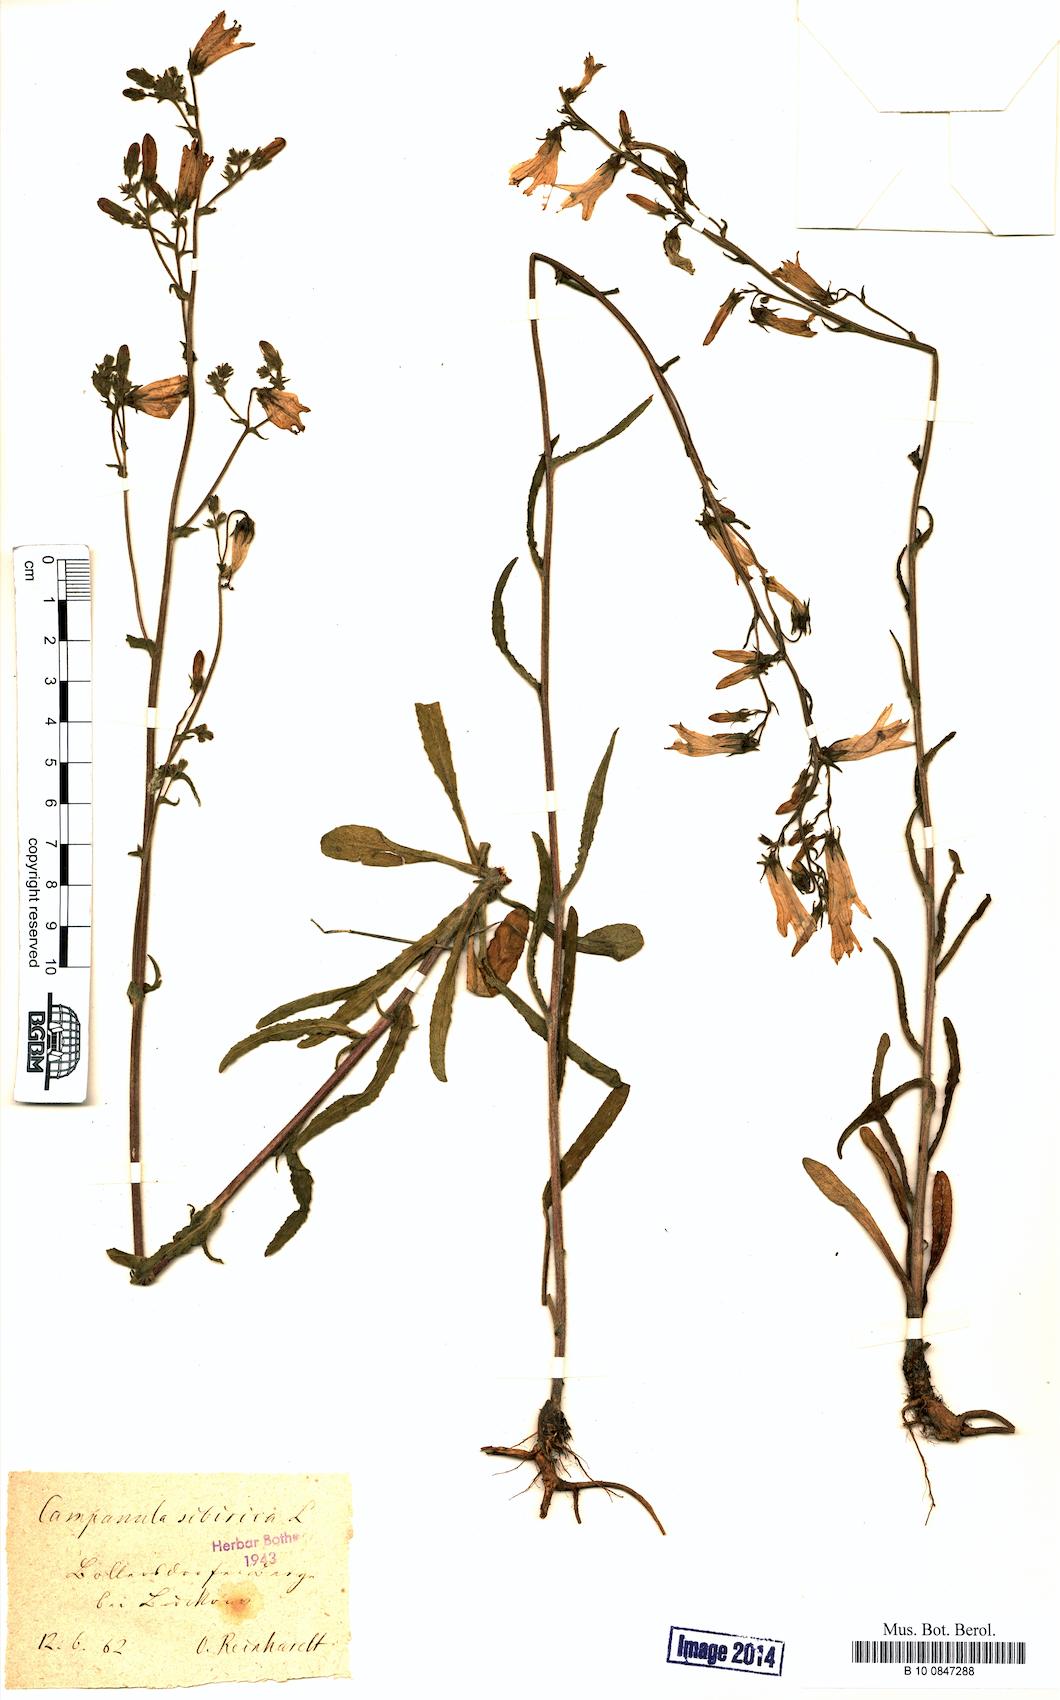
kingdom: Plantae
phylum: Tracheophyta
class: Magnoliopsida
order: Asterales
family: Campanulaceae
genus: Campanula
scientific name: Campanula sibirica
